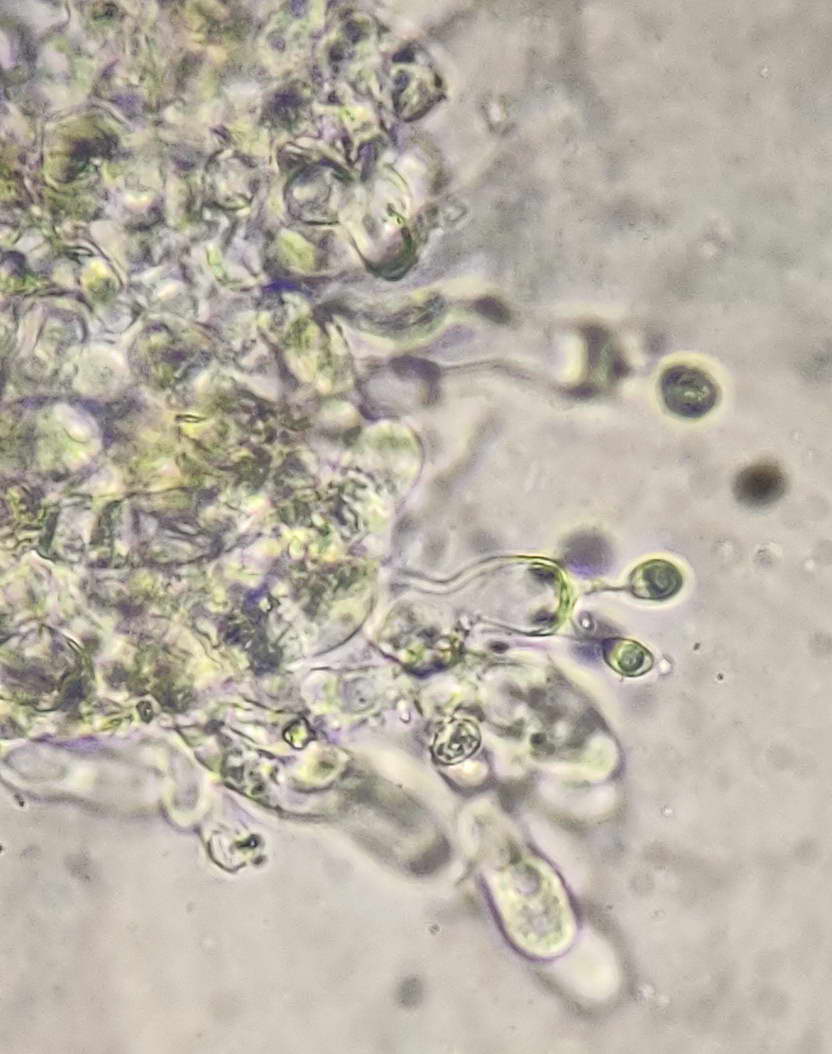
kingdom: Fungi
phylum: Basidiomycota
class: Agaricomycetes
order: Agaricales
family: Stephanosporaceae
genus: Lindtneria
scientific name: Lindtneria panphyliensis
